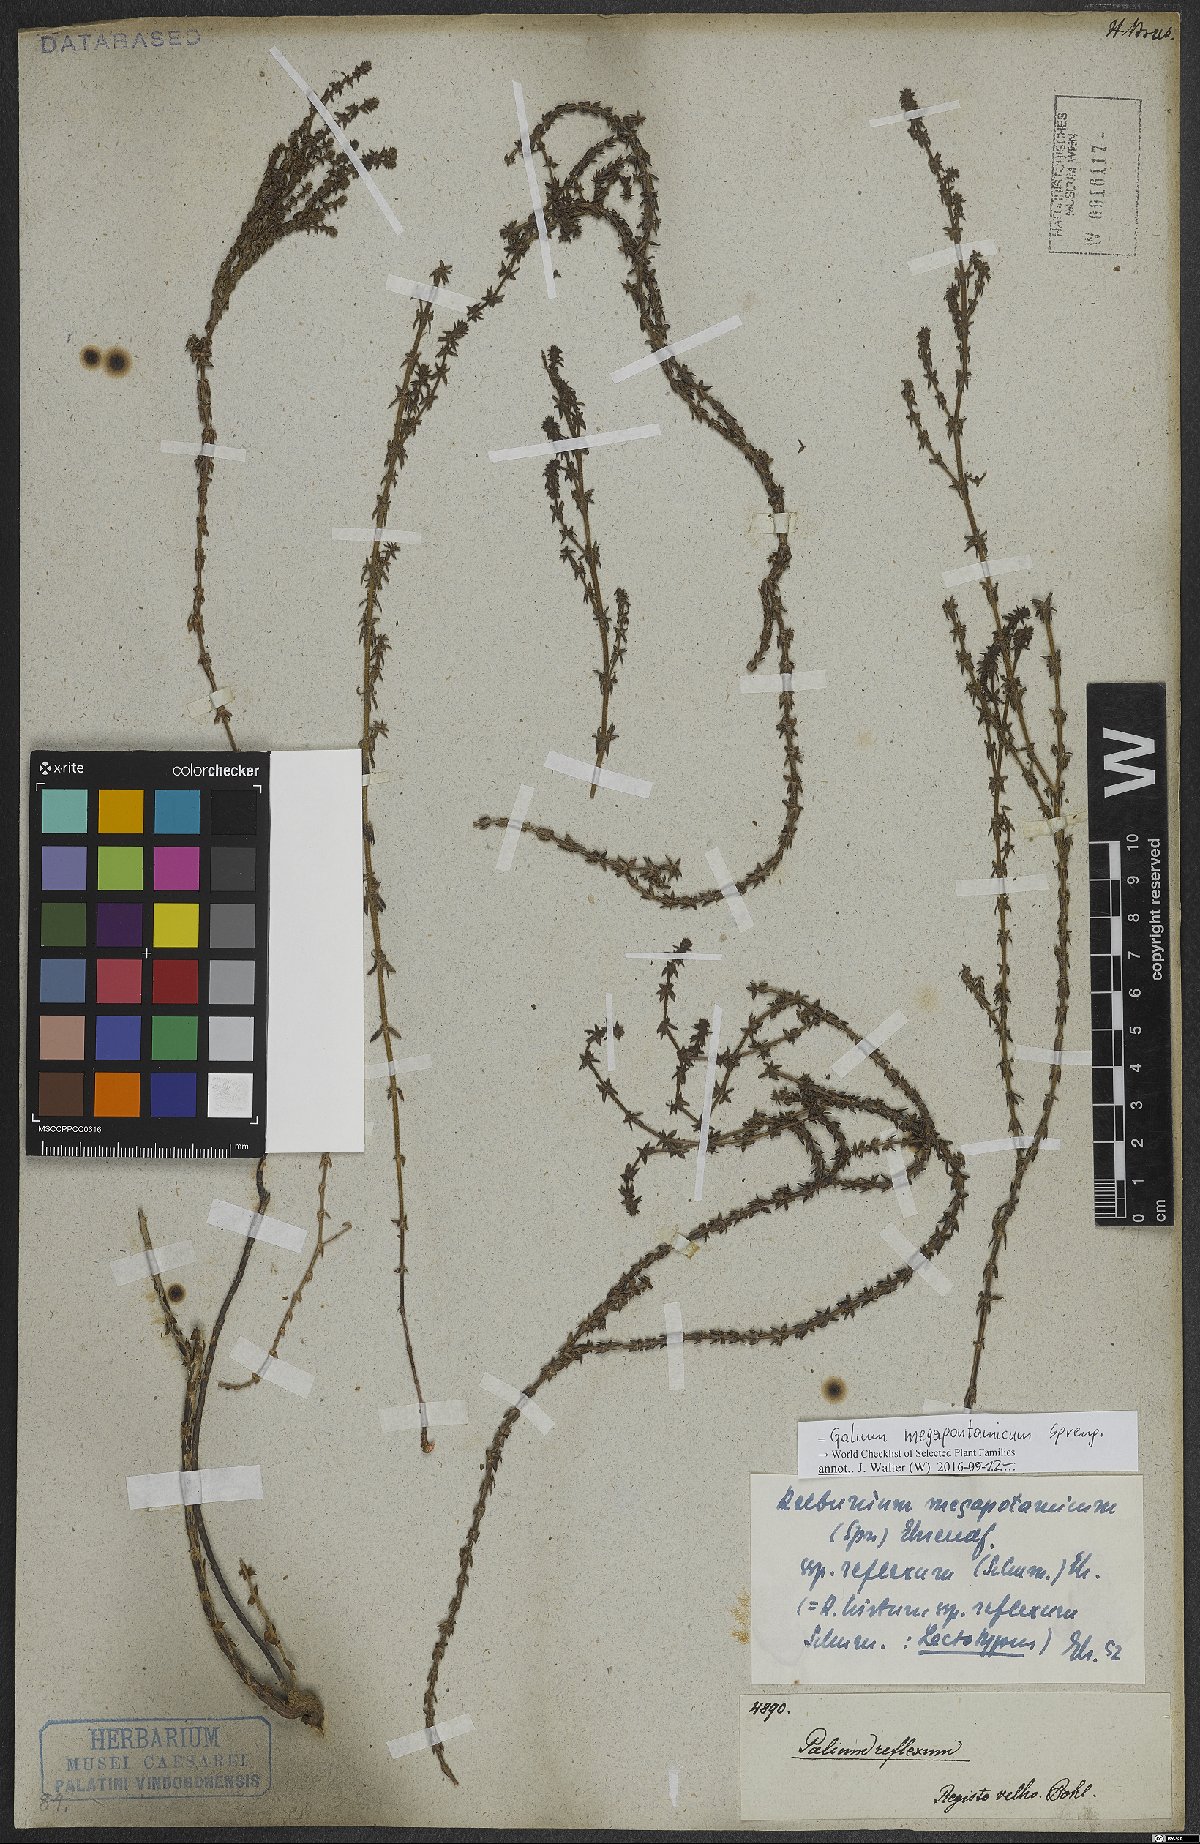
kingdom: Plantae
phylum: Tracheophyta
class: Magnoliopsida
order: Gentianales
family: Rubiaceae
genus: Galium
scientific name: Galium megapotamicum
